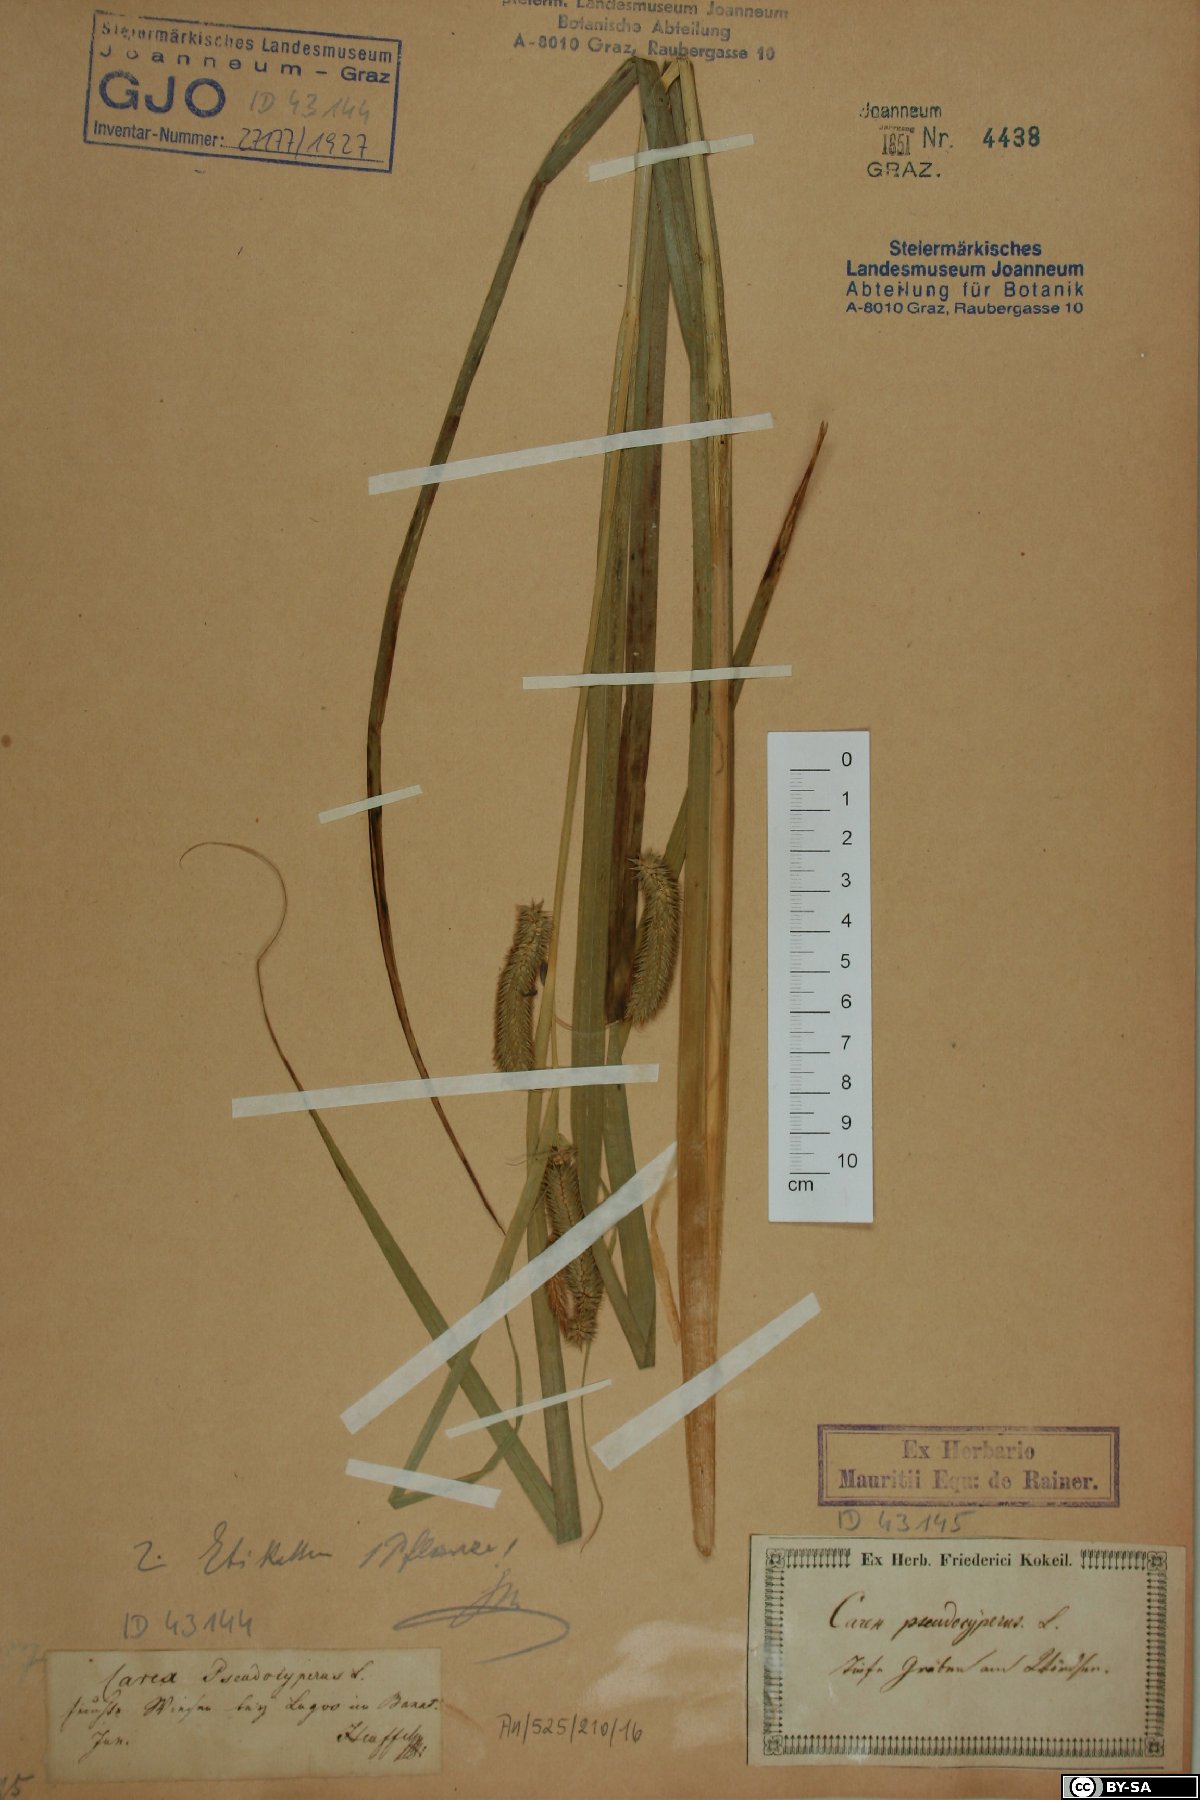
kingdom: Plantae
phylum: Tracheophyta
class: Liliopsida
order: Poales
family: Cyperaceae
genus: Carex
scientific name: Carex pseudocyperus
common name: Cyperus sedge
